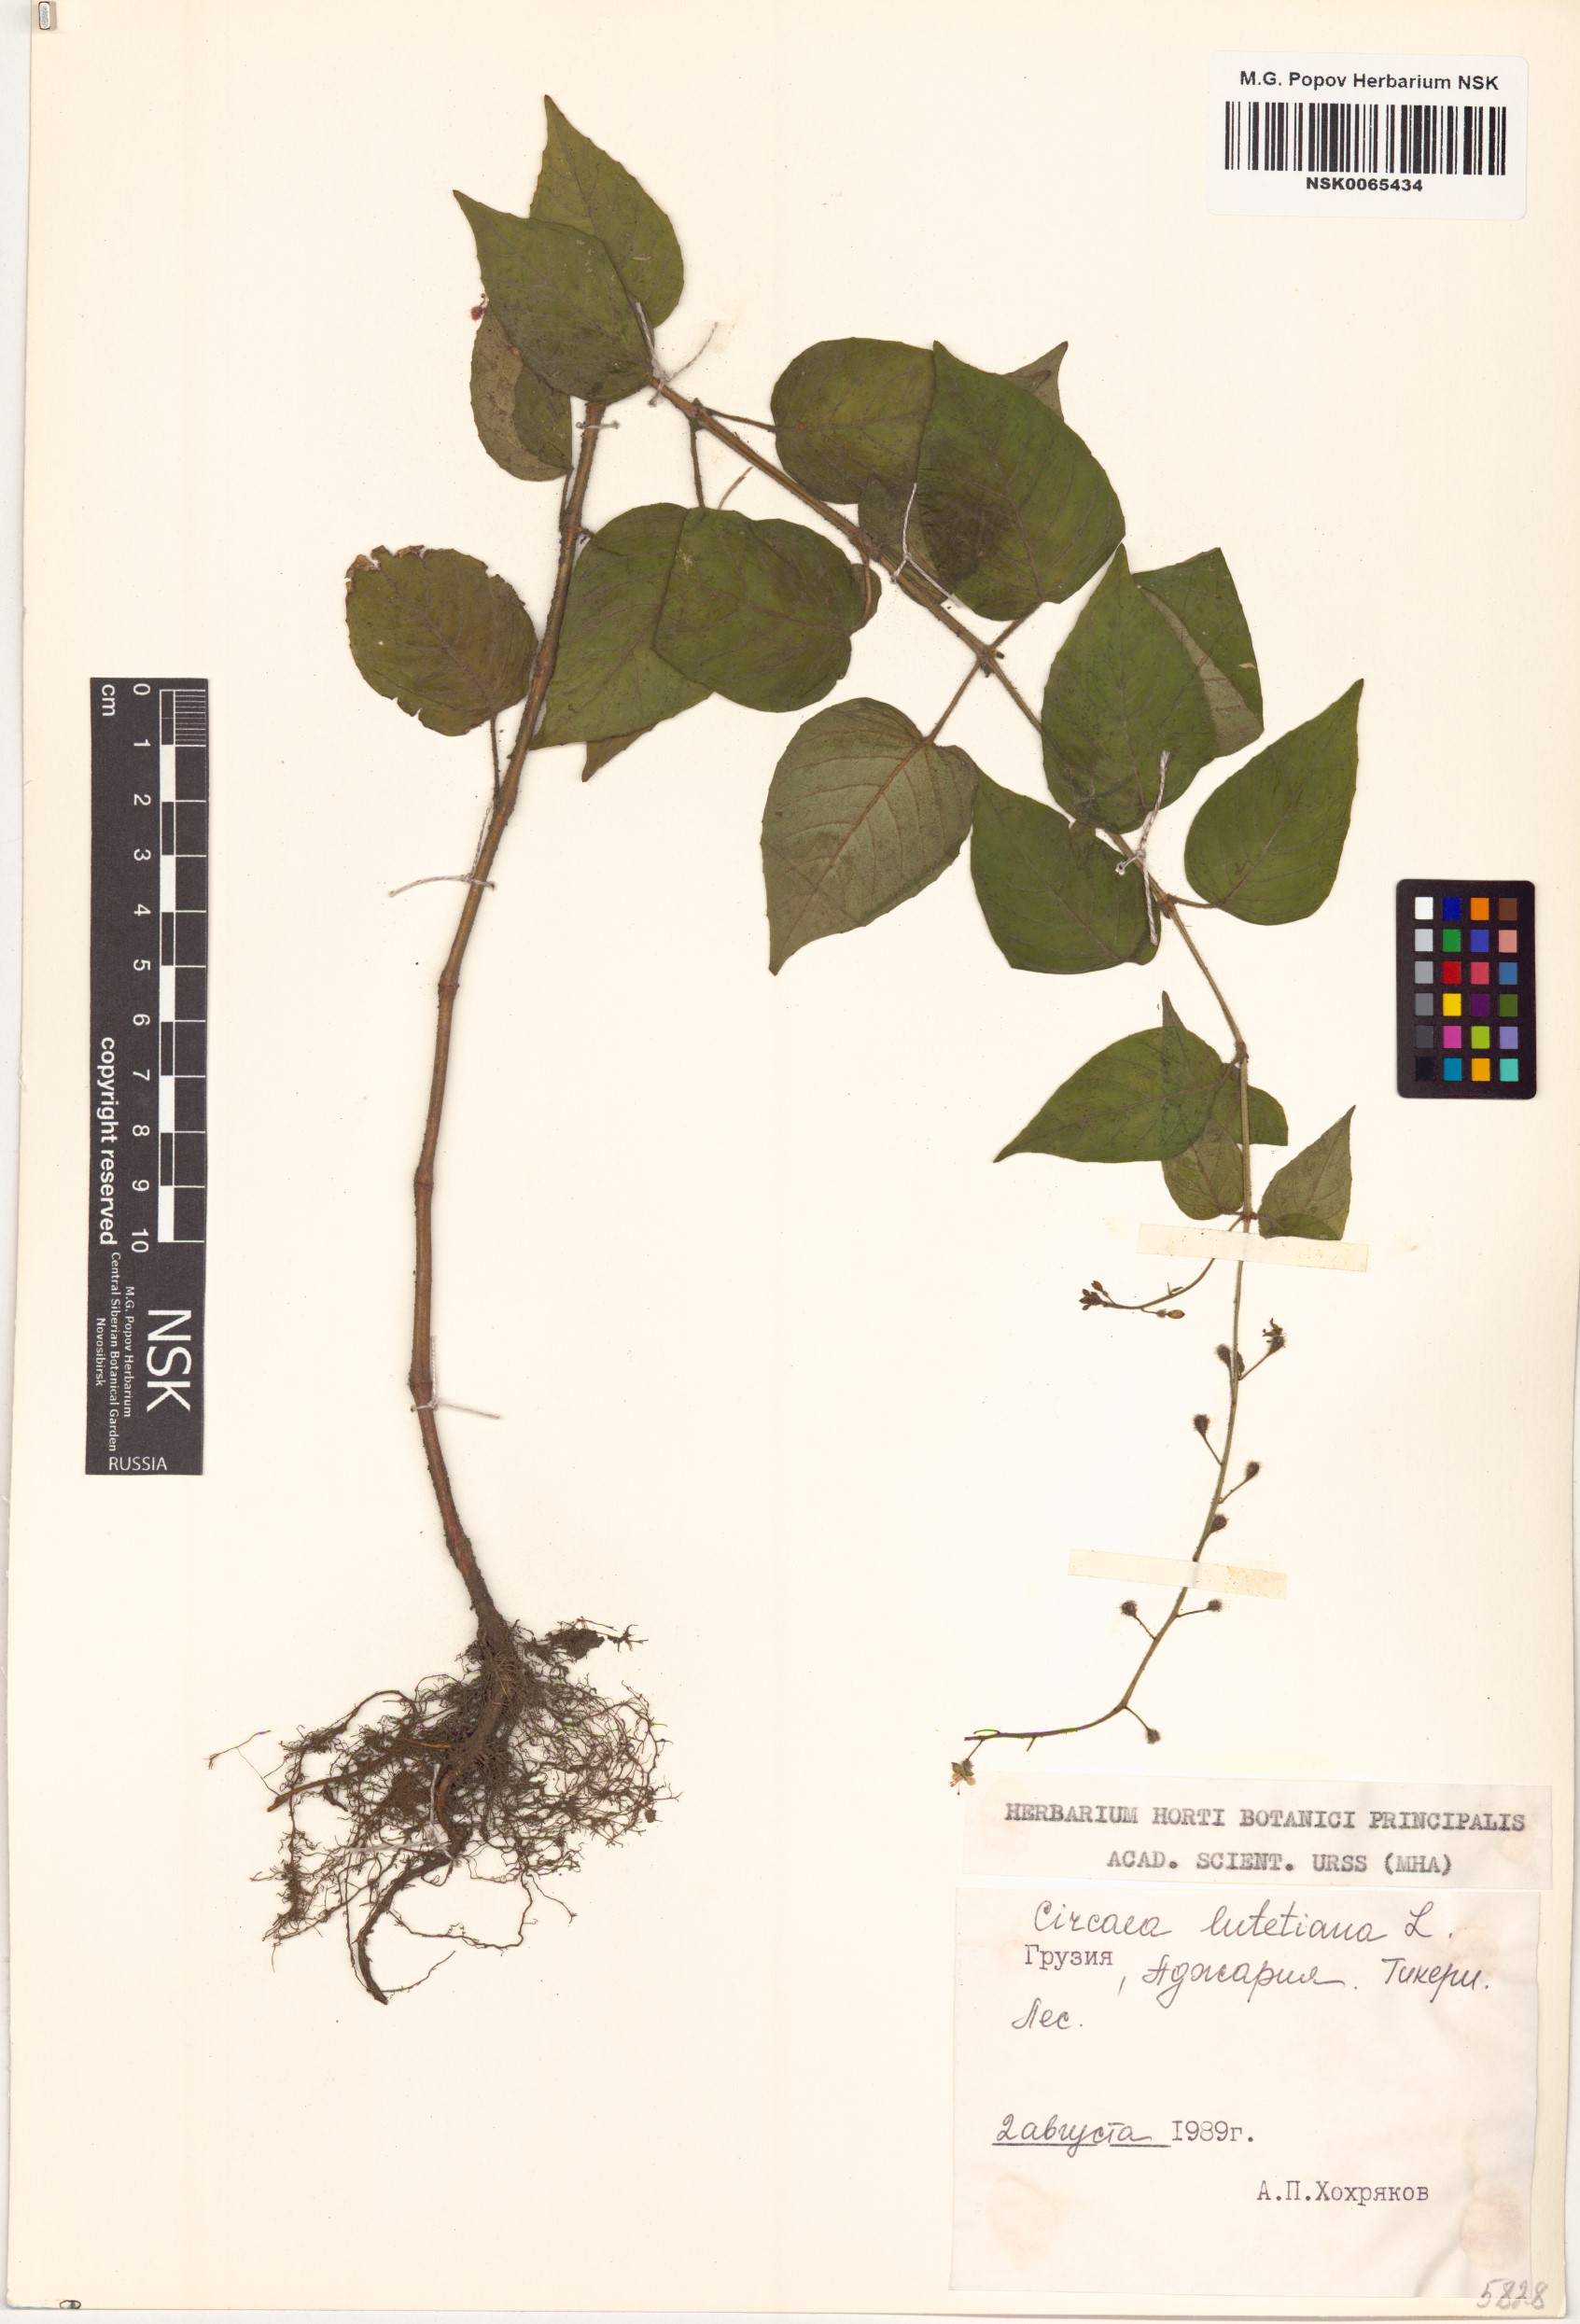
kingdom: Plantae
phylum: Tracheophyta
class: Magnoliopsida
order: Myrtales
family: Onagraceae
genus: Circaea
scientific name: Circaea lutetiana
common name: Enchanter's-nightshade
